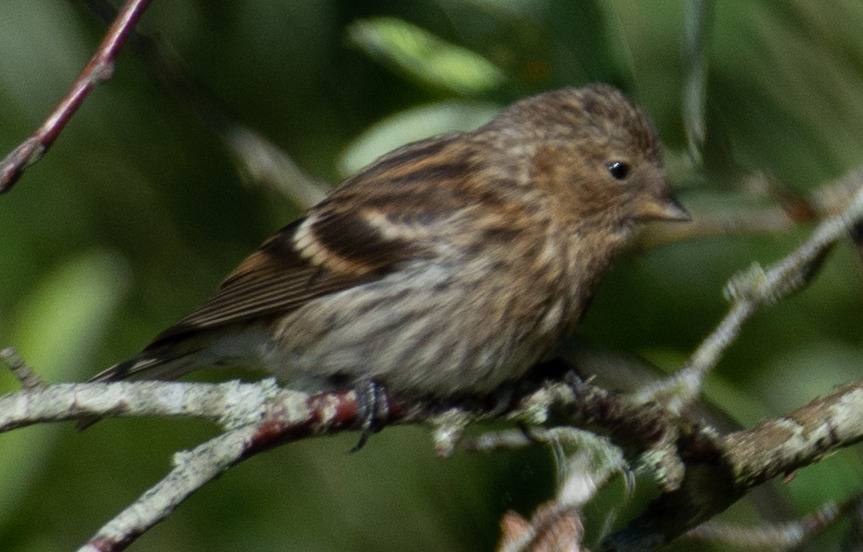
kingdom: Animalia
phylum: Chordata
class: Aves
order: Passeriformes
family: Fringillidae
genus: Acanthis
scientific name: Acanthis flammea
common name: Lille gråsisken
